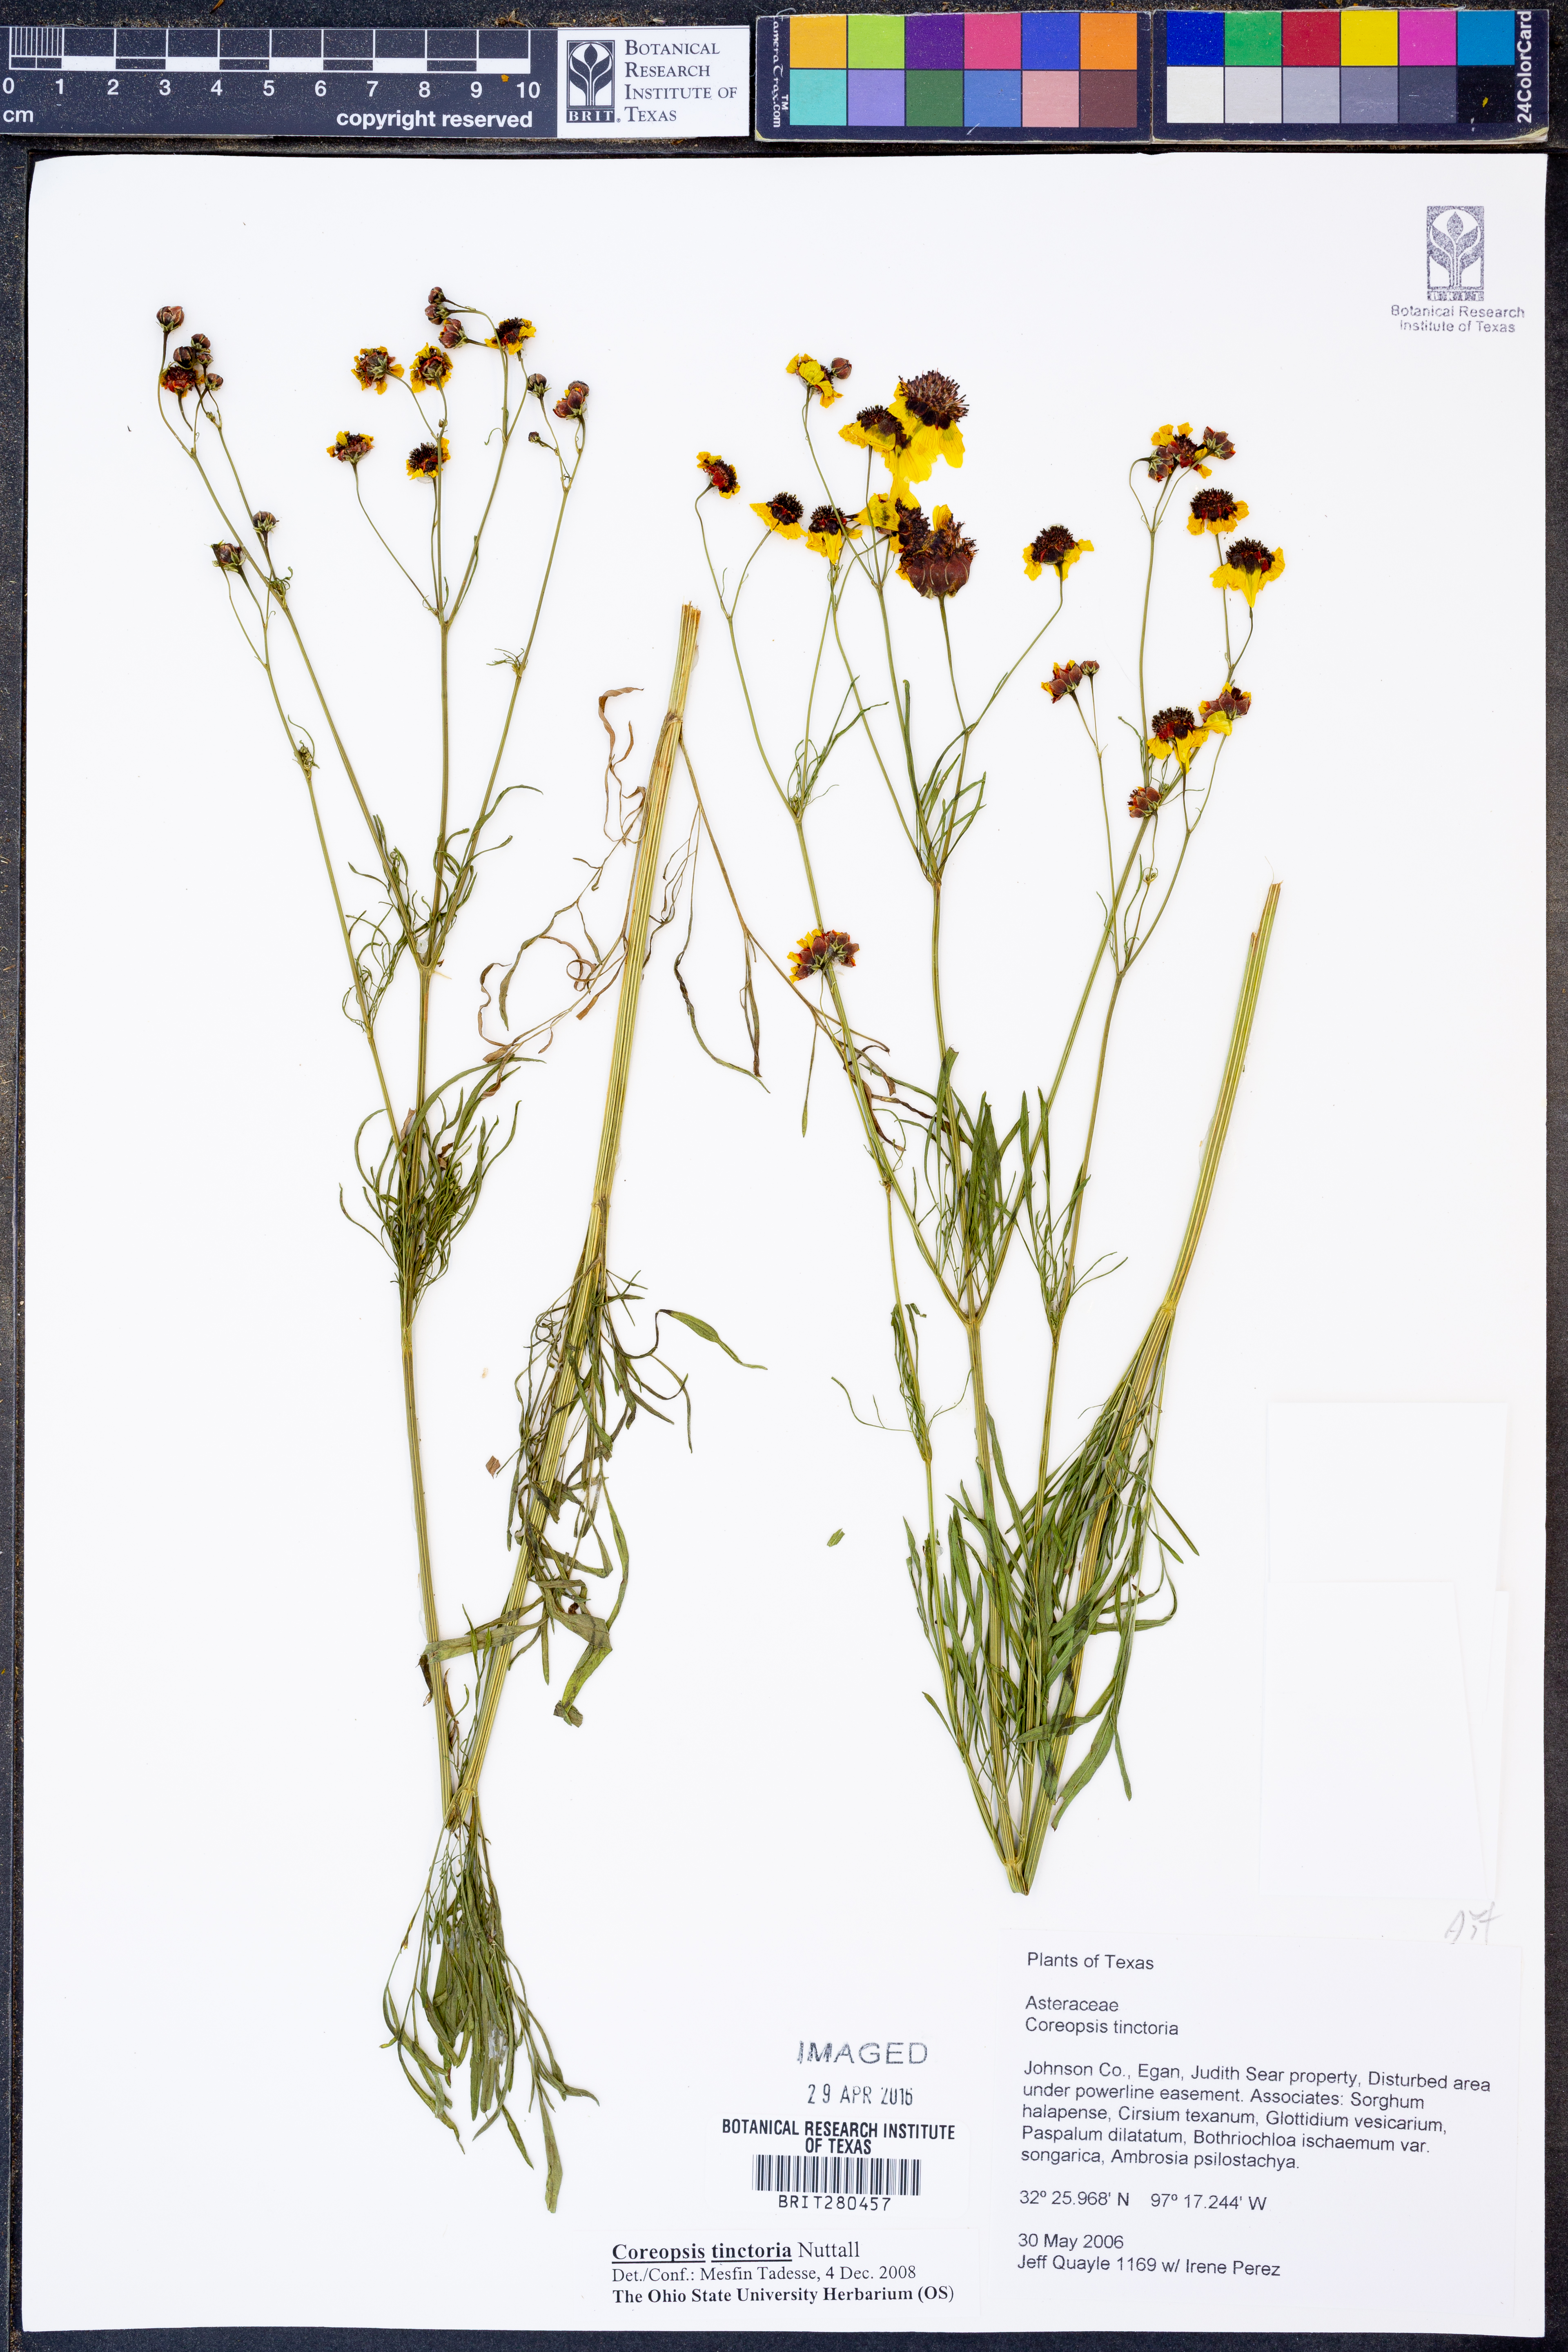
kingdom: Plantae
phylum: Tracheophyta
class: Magnoliopsida
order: Asterales
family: Asteraceae
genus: Coreopsis
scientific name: Coreopsis tinctoria
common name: Garden tickseed
